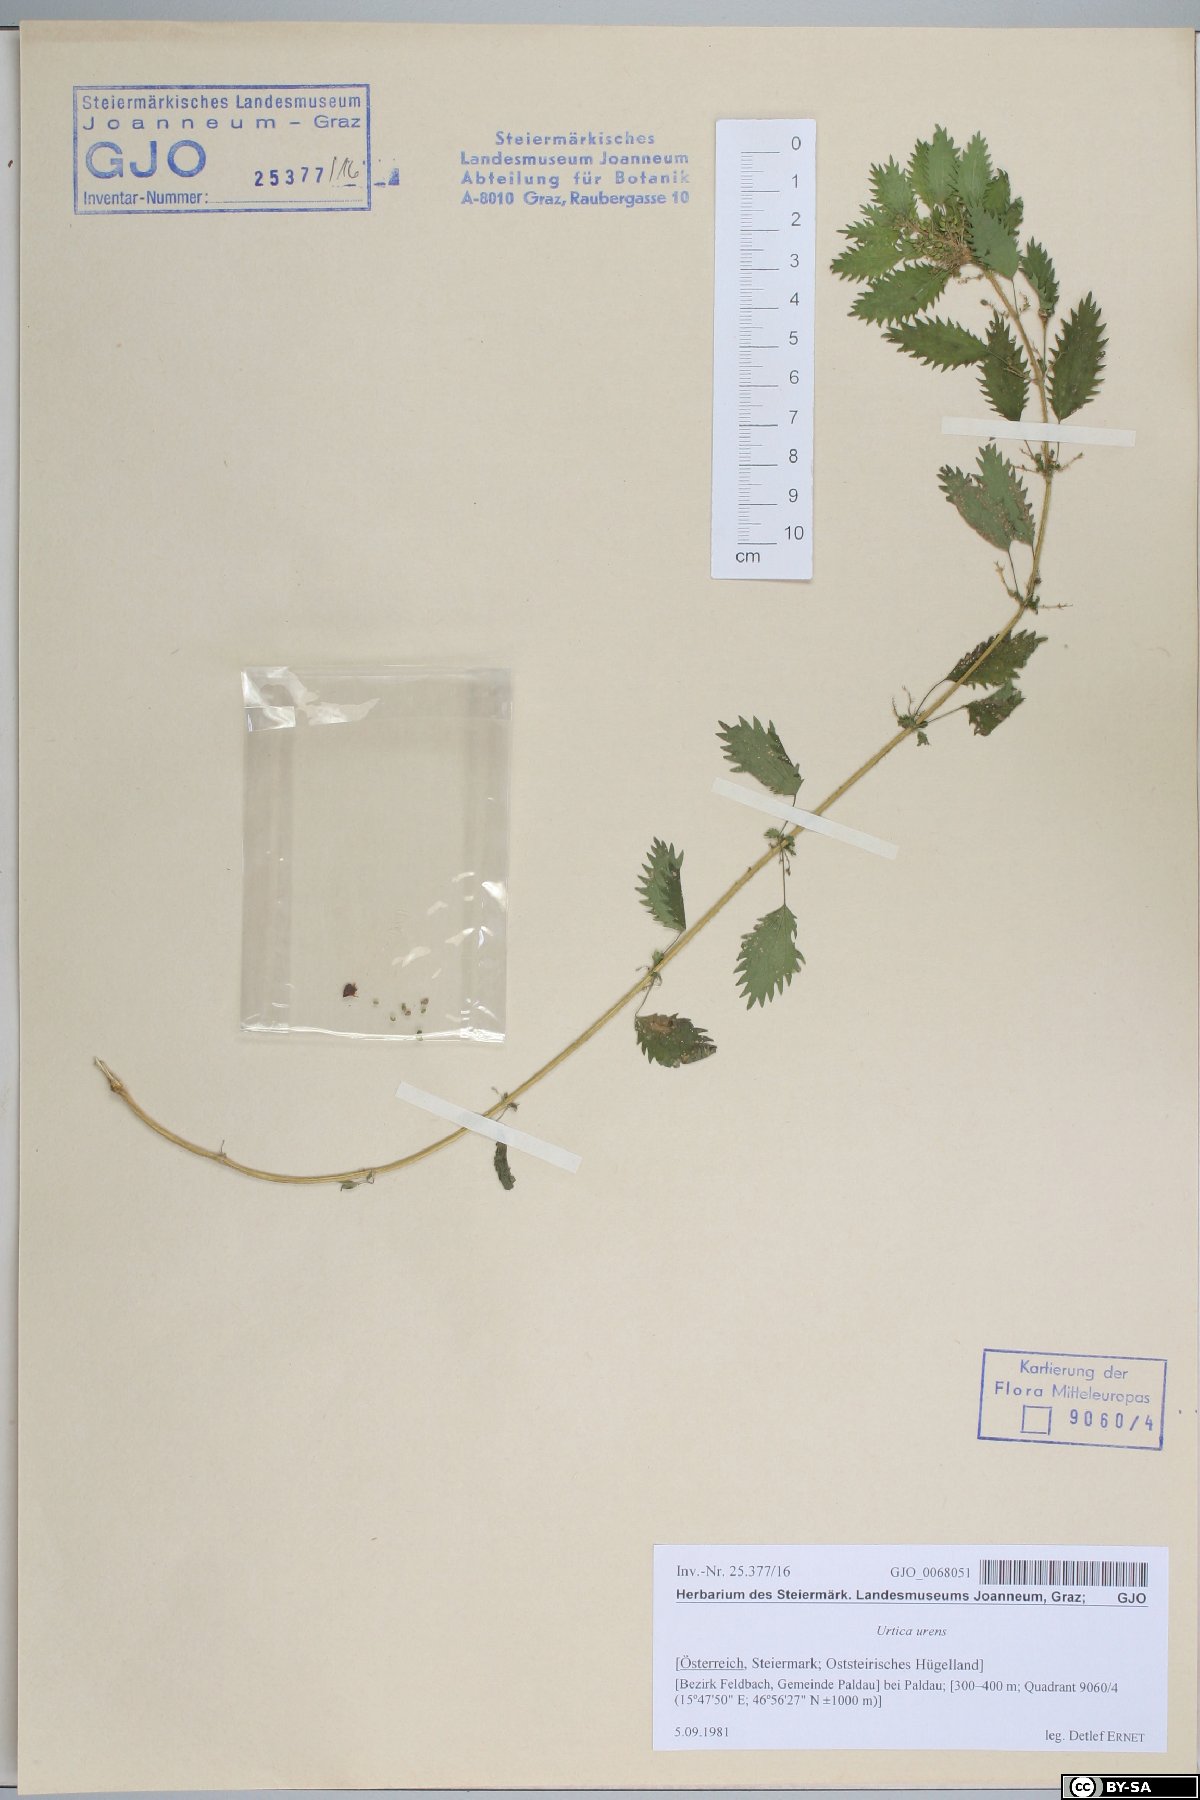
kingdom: Plantae
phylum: Tracheophyta
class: Magnoliopsida
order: Rosales
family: Urticaceae
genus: Urtica
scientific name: Urtica urens
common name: Dwarf nettle
